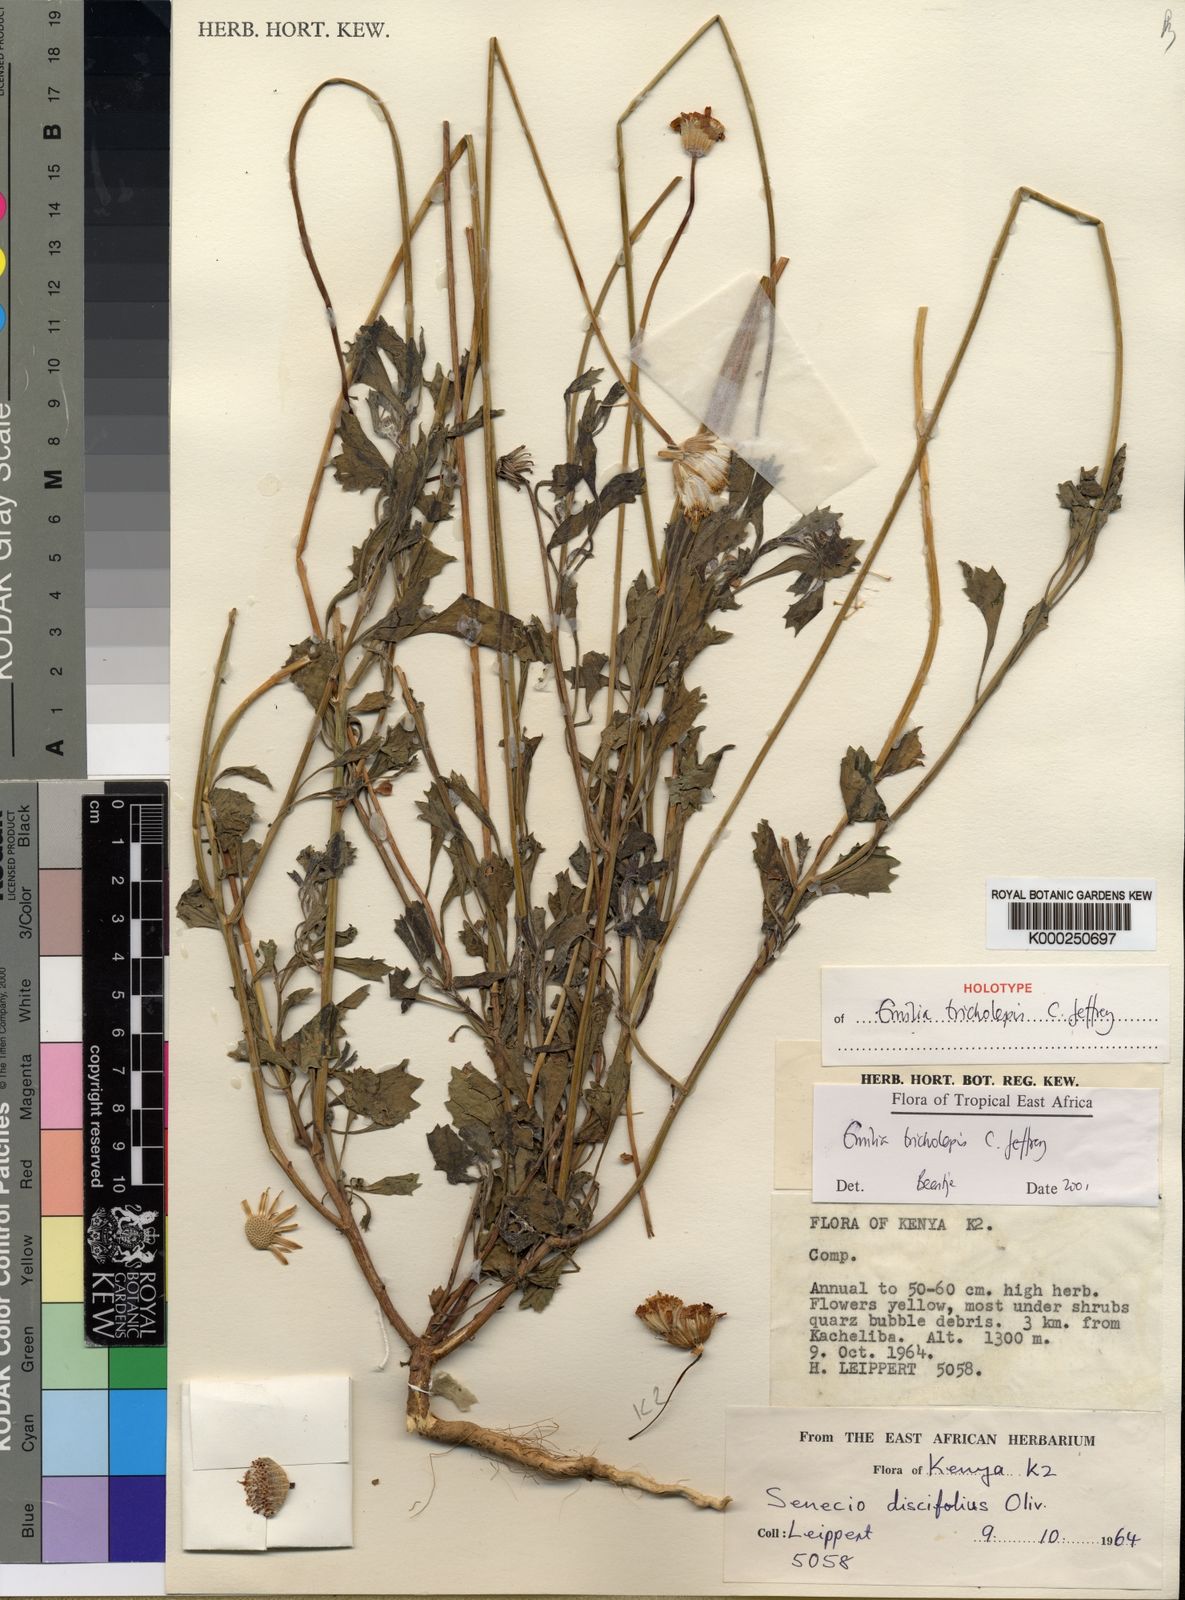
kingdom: Plantae
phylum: Tracheophyta
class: Magnoliopsida
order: Asterales
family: Asteraceae
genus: Emilia
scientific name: Emilia tricholepis
